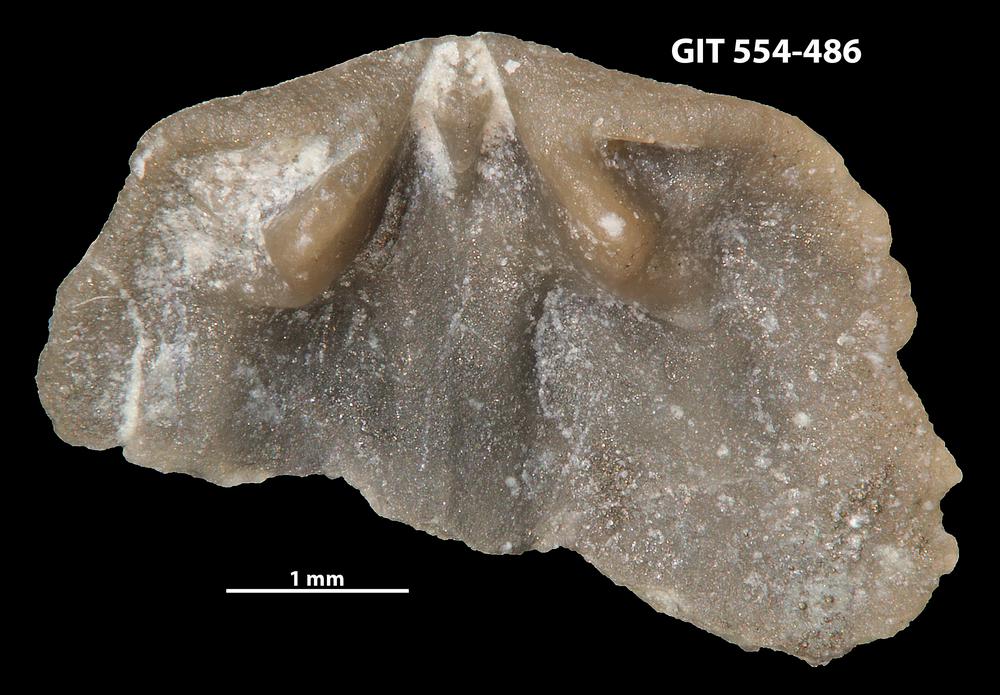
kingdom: Animalia
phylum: Brachiopoda
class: Rhynchonellata
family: Dalmanellidae
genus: Isorthis
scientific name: Isorthis Onniella mediocra
